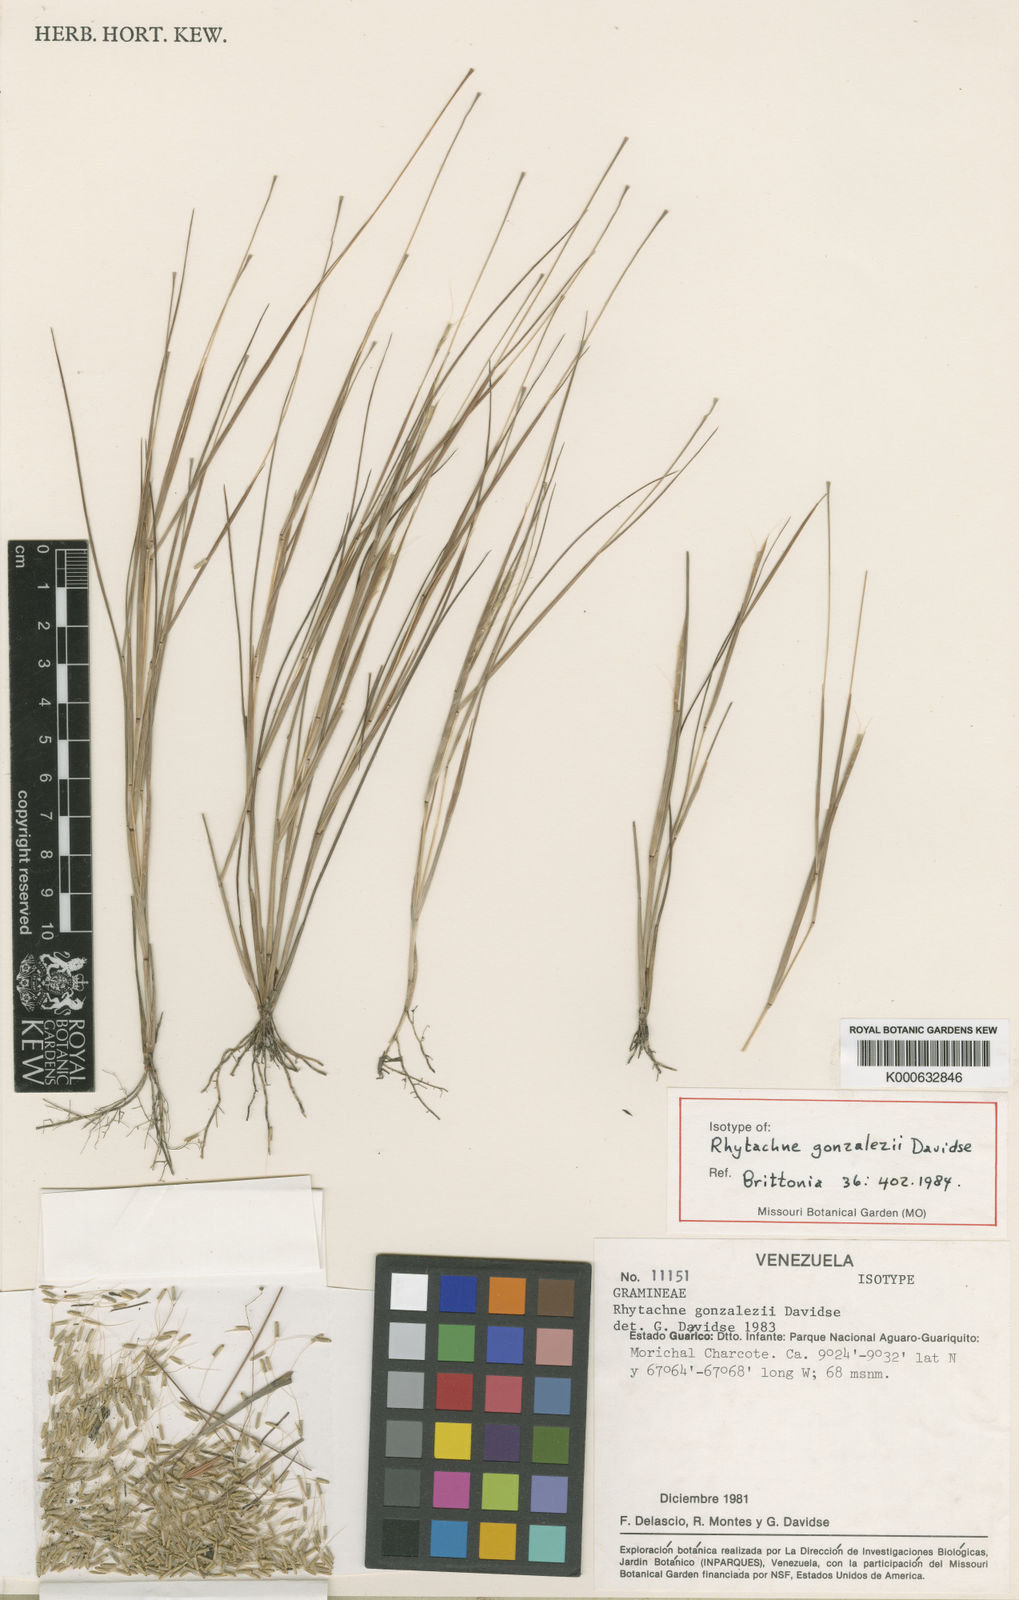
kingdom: Plantae
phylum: Tracheophyta
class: Liliopsida
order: Poales
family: Poaceae
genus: Rhytachne
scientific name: Rhytachne gonzalezii
